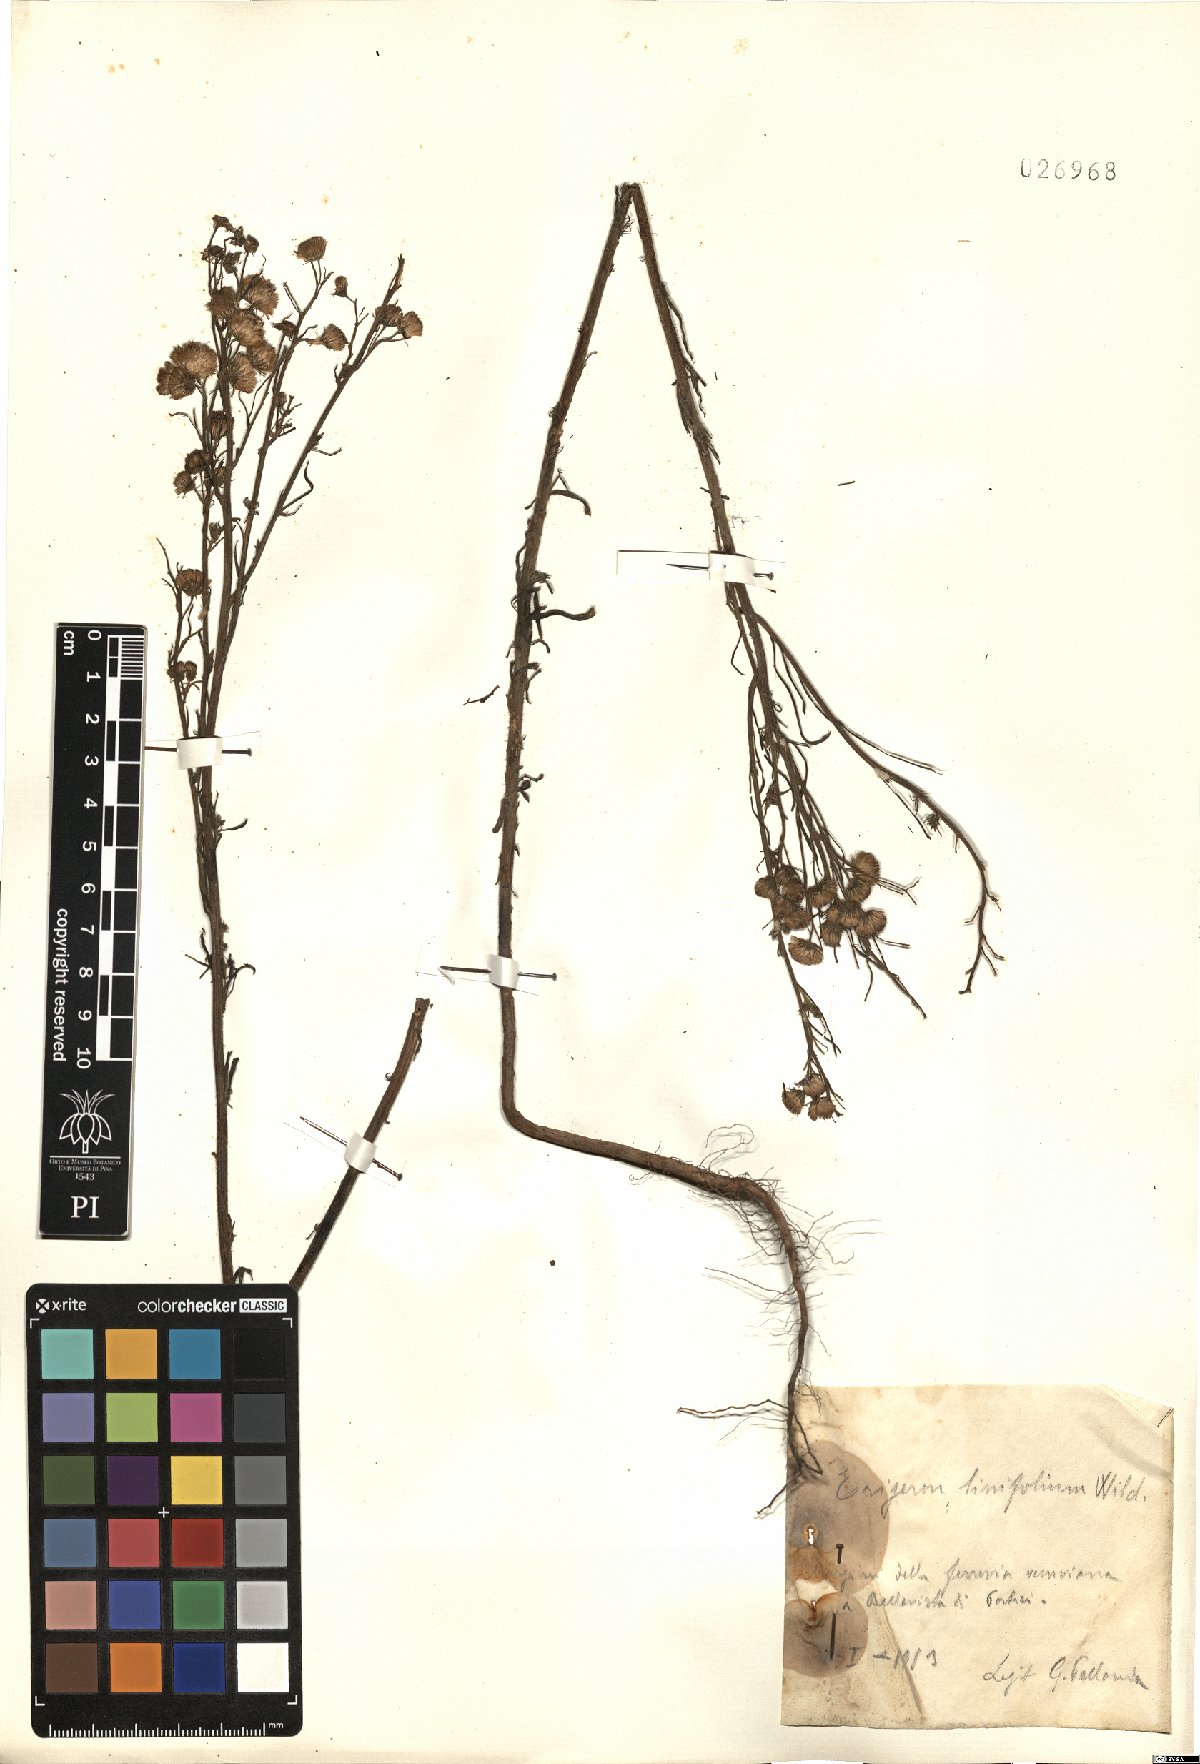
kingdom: Plantae
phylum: Tracheophyta
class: Magnoliopsida
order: Asterales
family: Asteraceae
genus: Erigeron
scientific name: Erigeron canadensis
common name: Canadian fleabane
